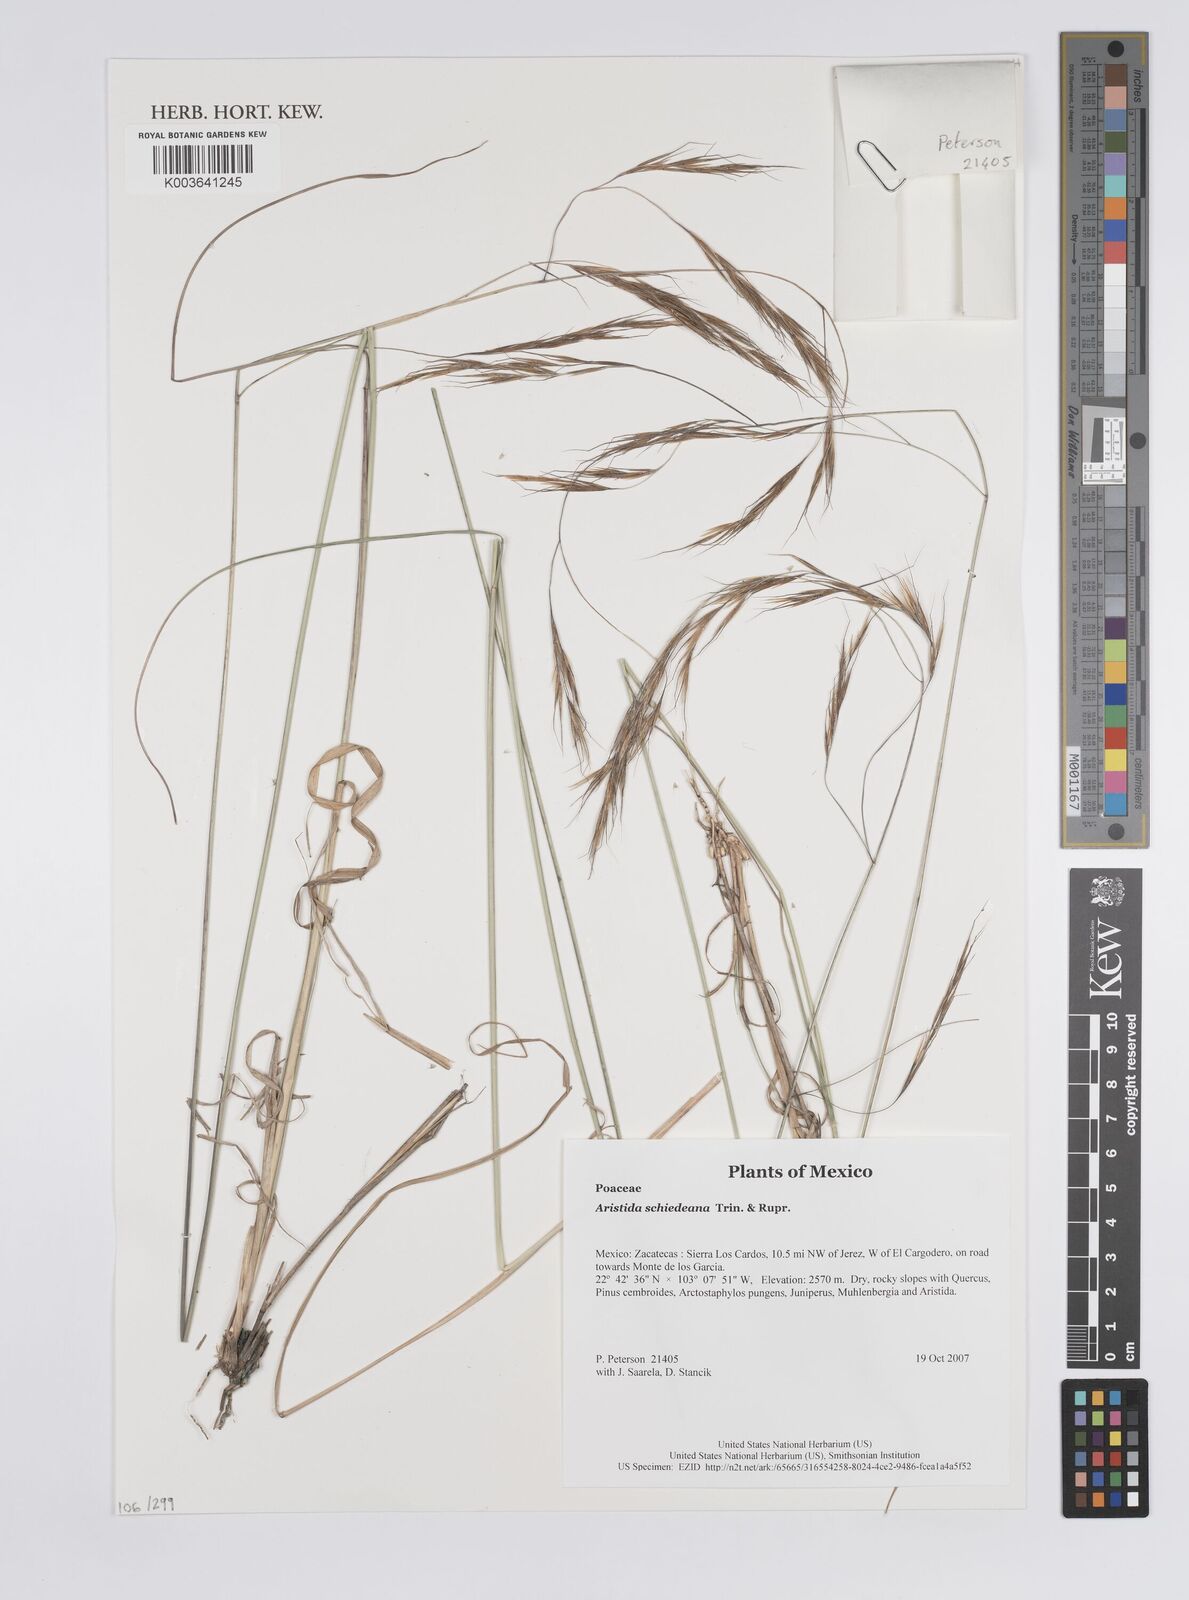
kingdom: Plantae
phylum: Tracheophyta
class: Liliopsida
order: Poales
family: Poaceae
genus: Aristida
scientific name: Aristida schiedeana
